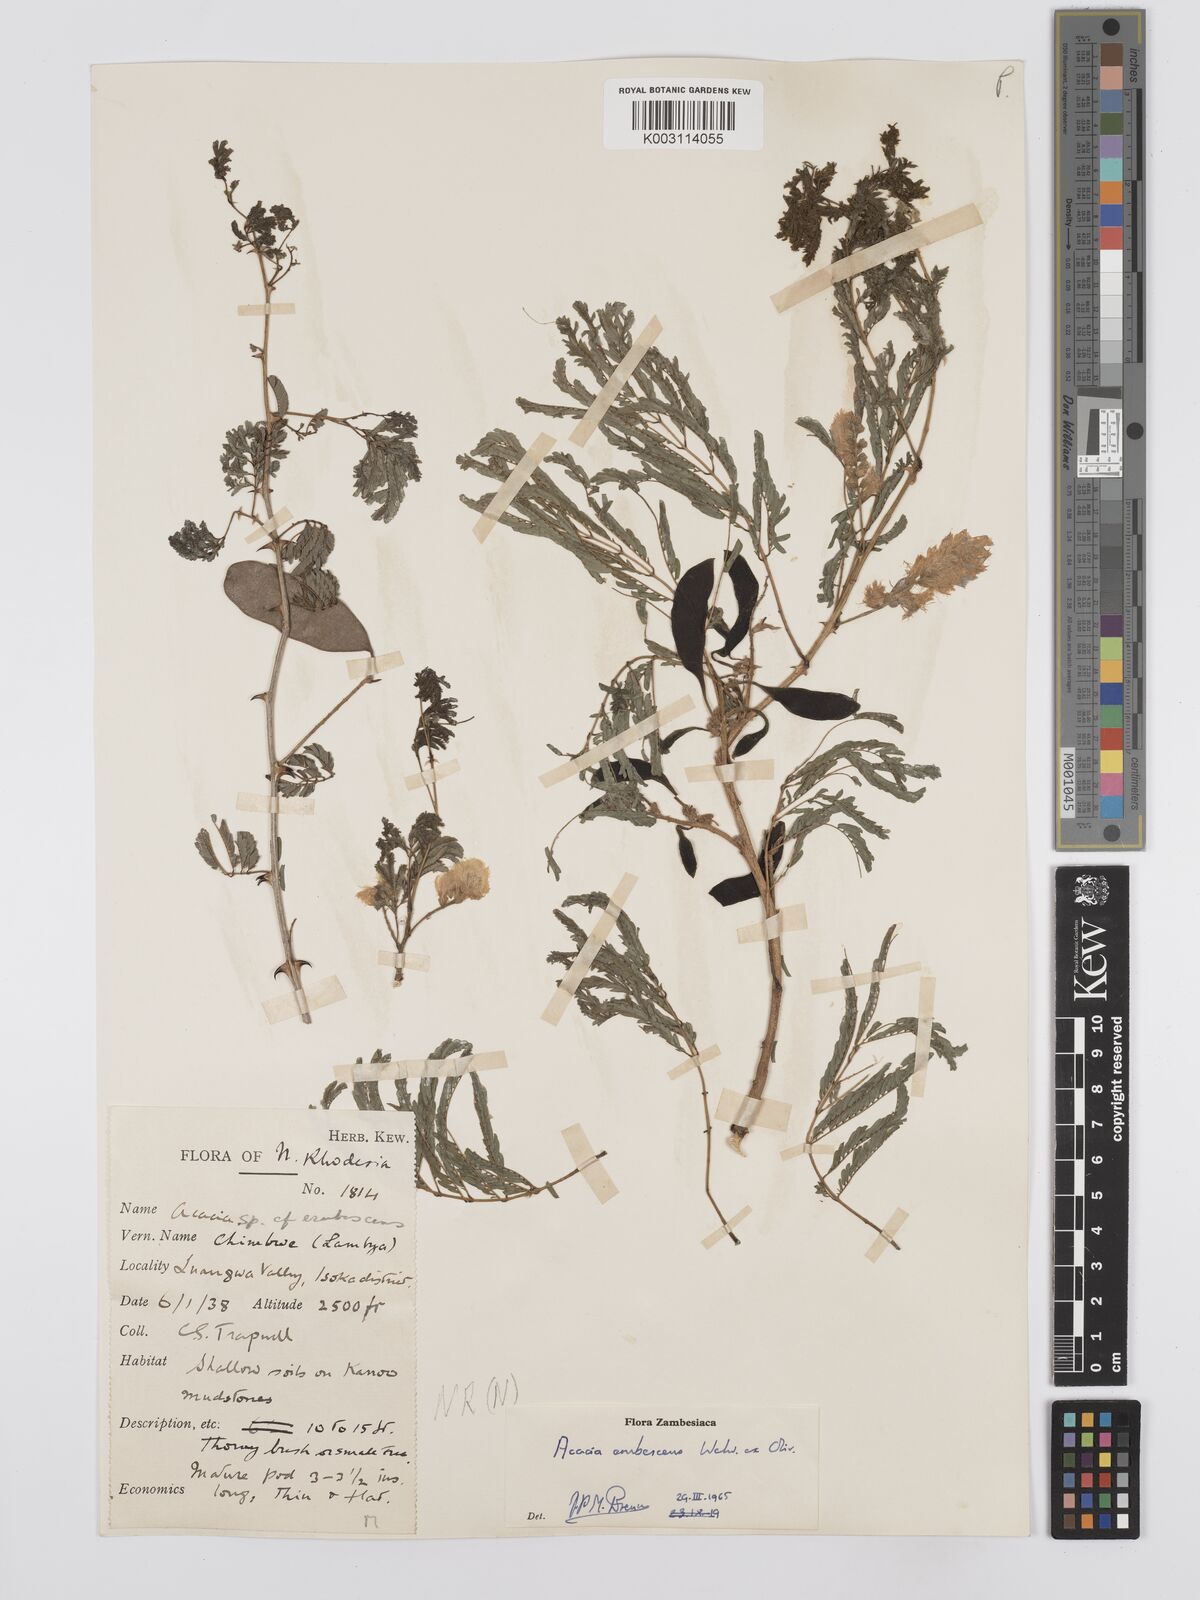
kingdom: Plantae
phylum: Tracheophyta
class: Magnoliopsida
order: Fabales
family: Fabaceae
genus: Senegalia
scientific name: Senegalia erubescens
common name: Bluethorn
